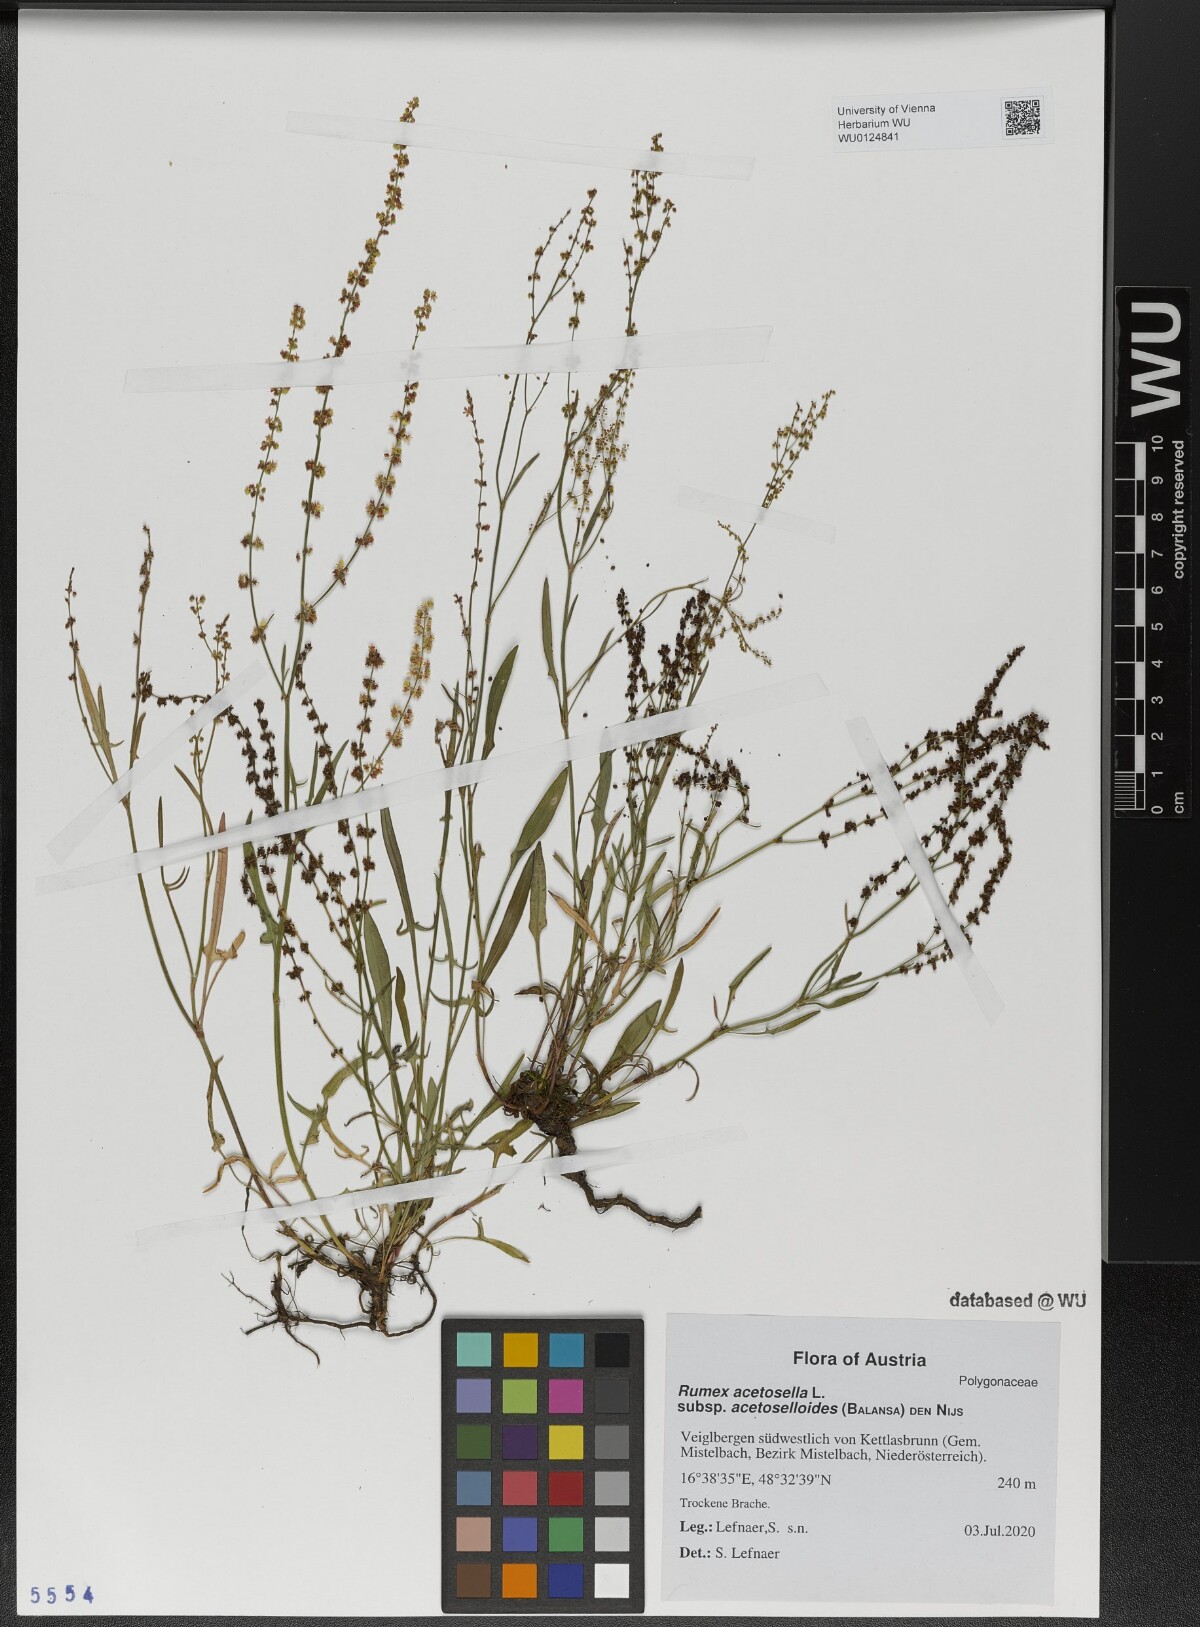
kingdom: Plantae
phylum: Tracheophyta
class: Magnoliopsida
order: Caryophyllales
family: Polygonaceae
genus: Rumex
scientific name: Rumex acetosella
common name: Common sheep sorrel
